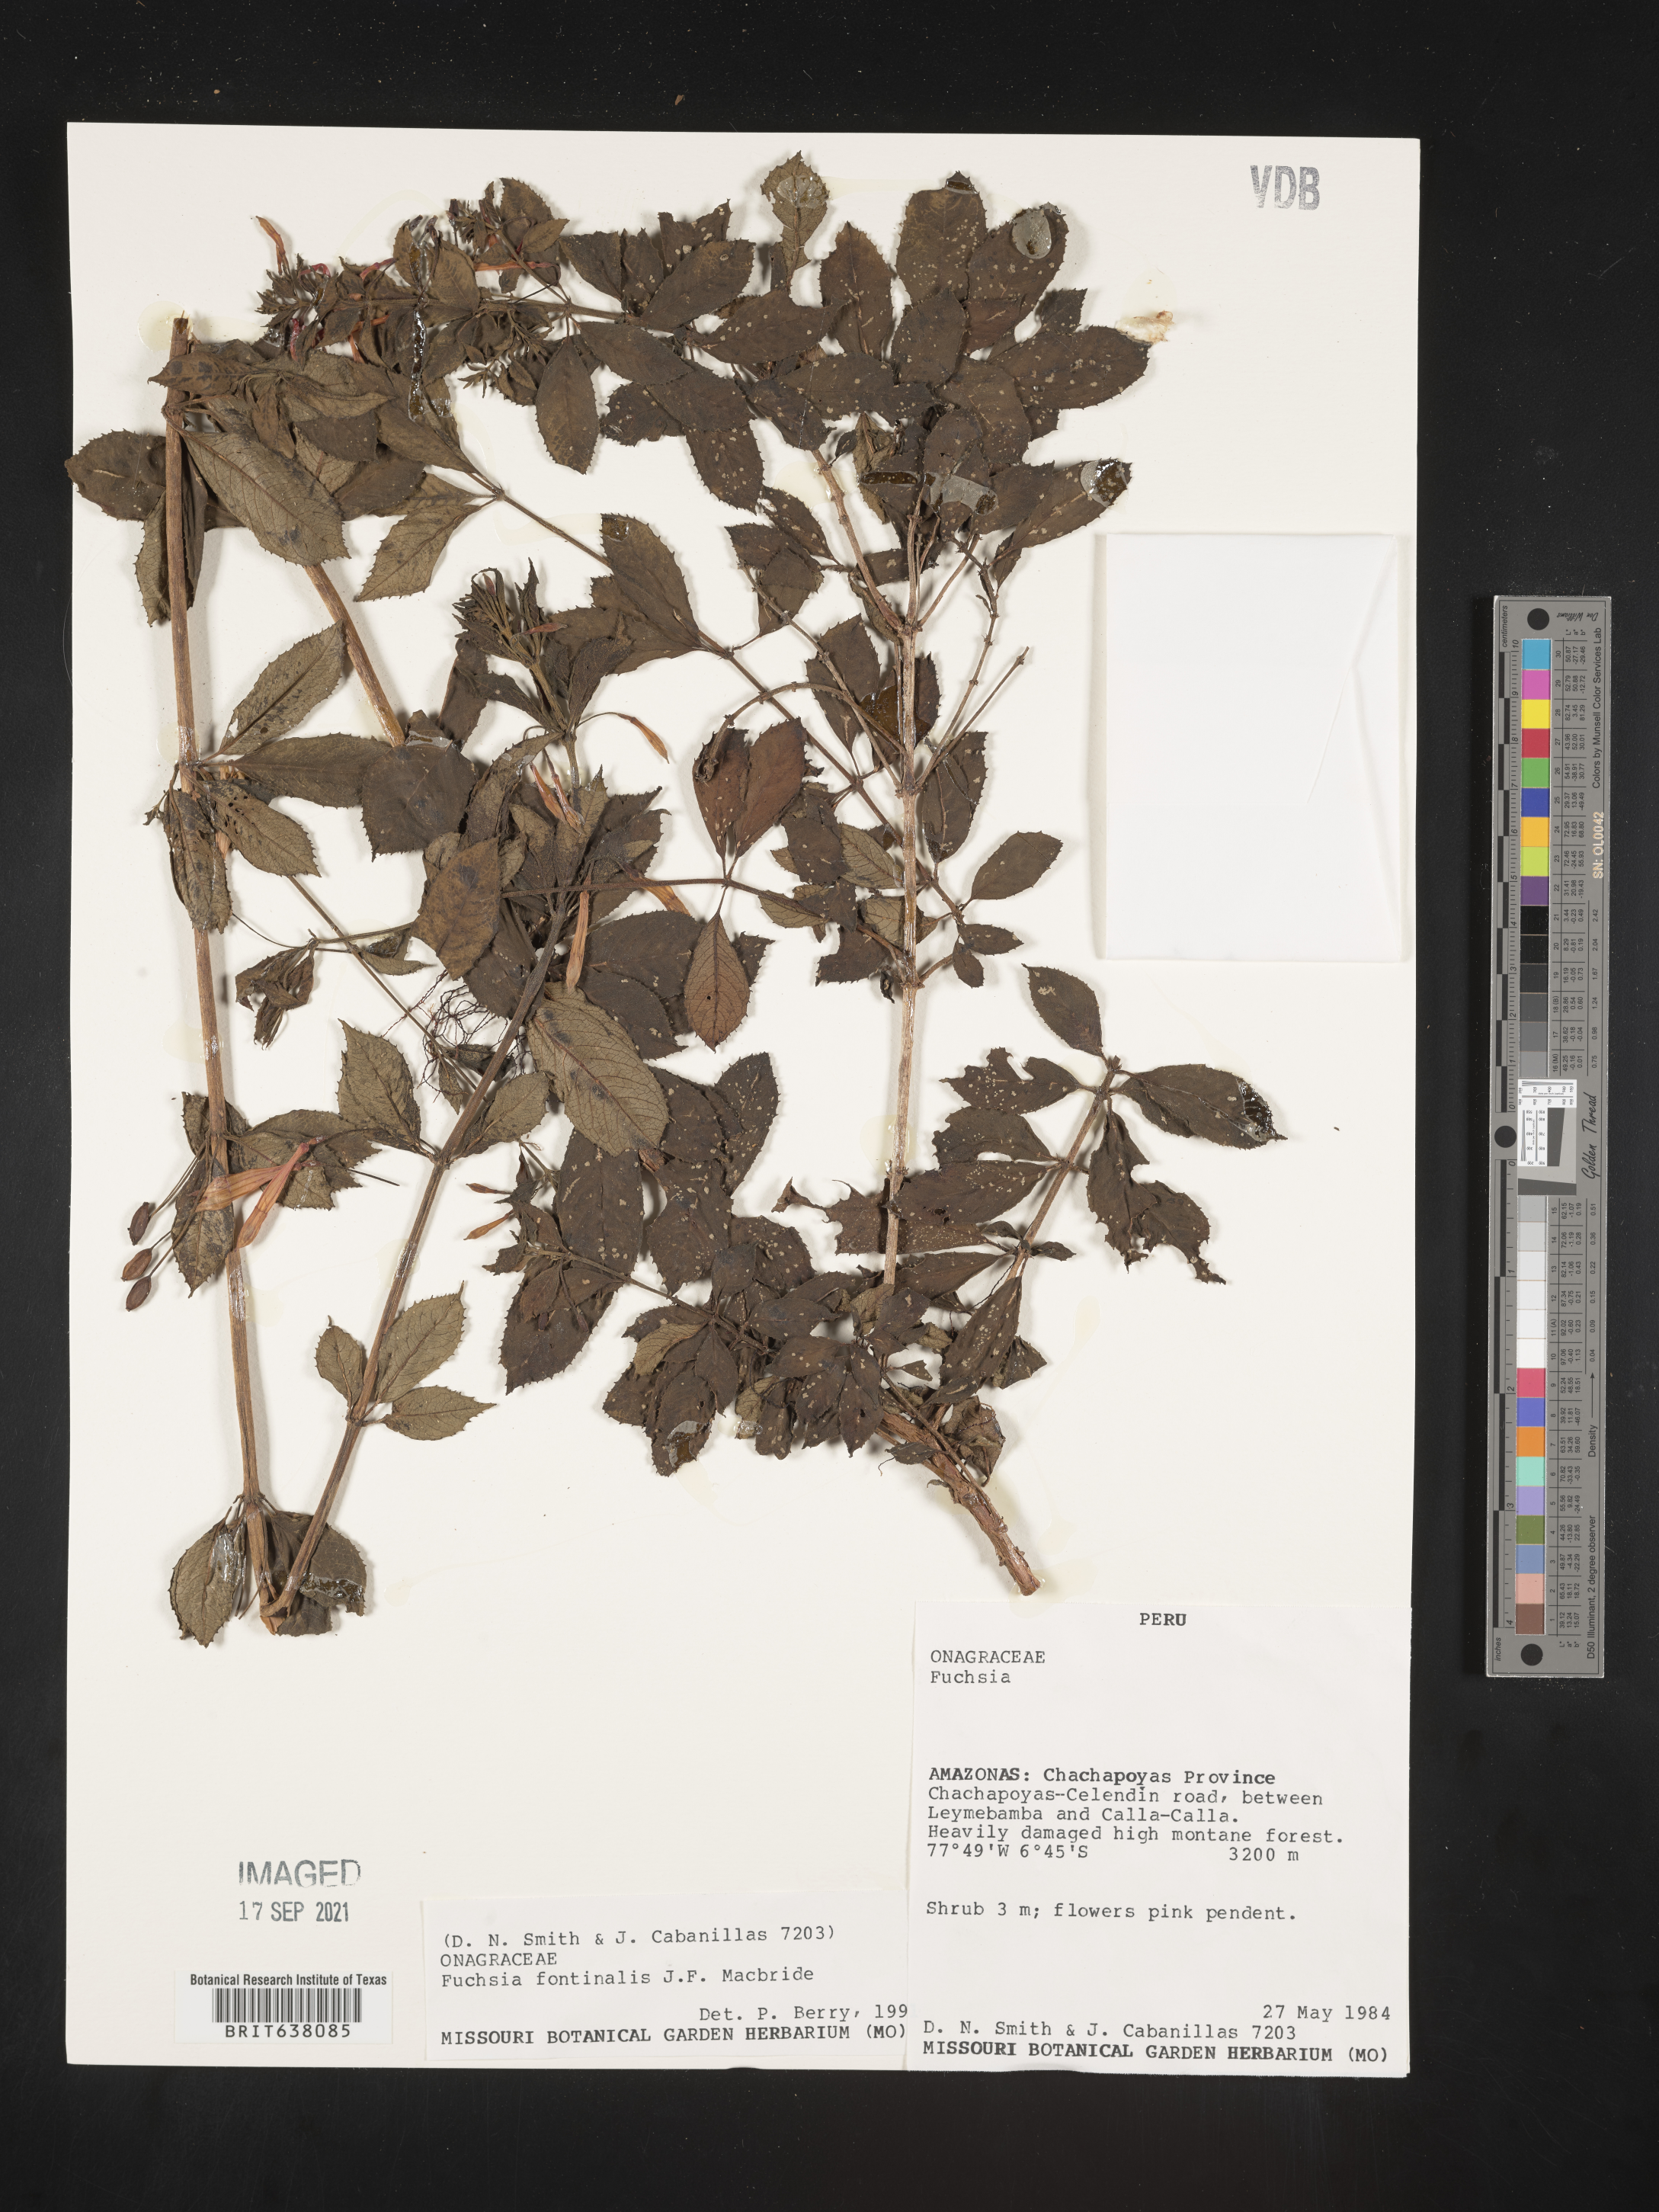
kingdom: Plantae
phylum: Tracheophyta
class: Magnoliopsida
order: Myrtales
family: Onagraceae
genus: Fuchsia
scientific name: Fuchsia
